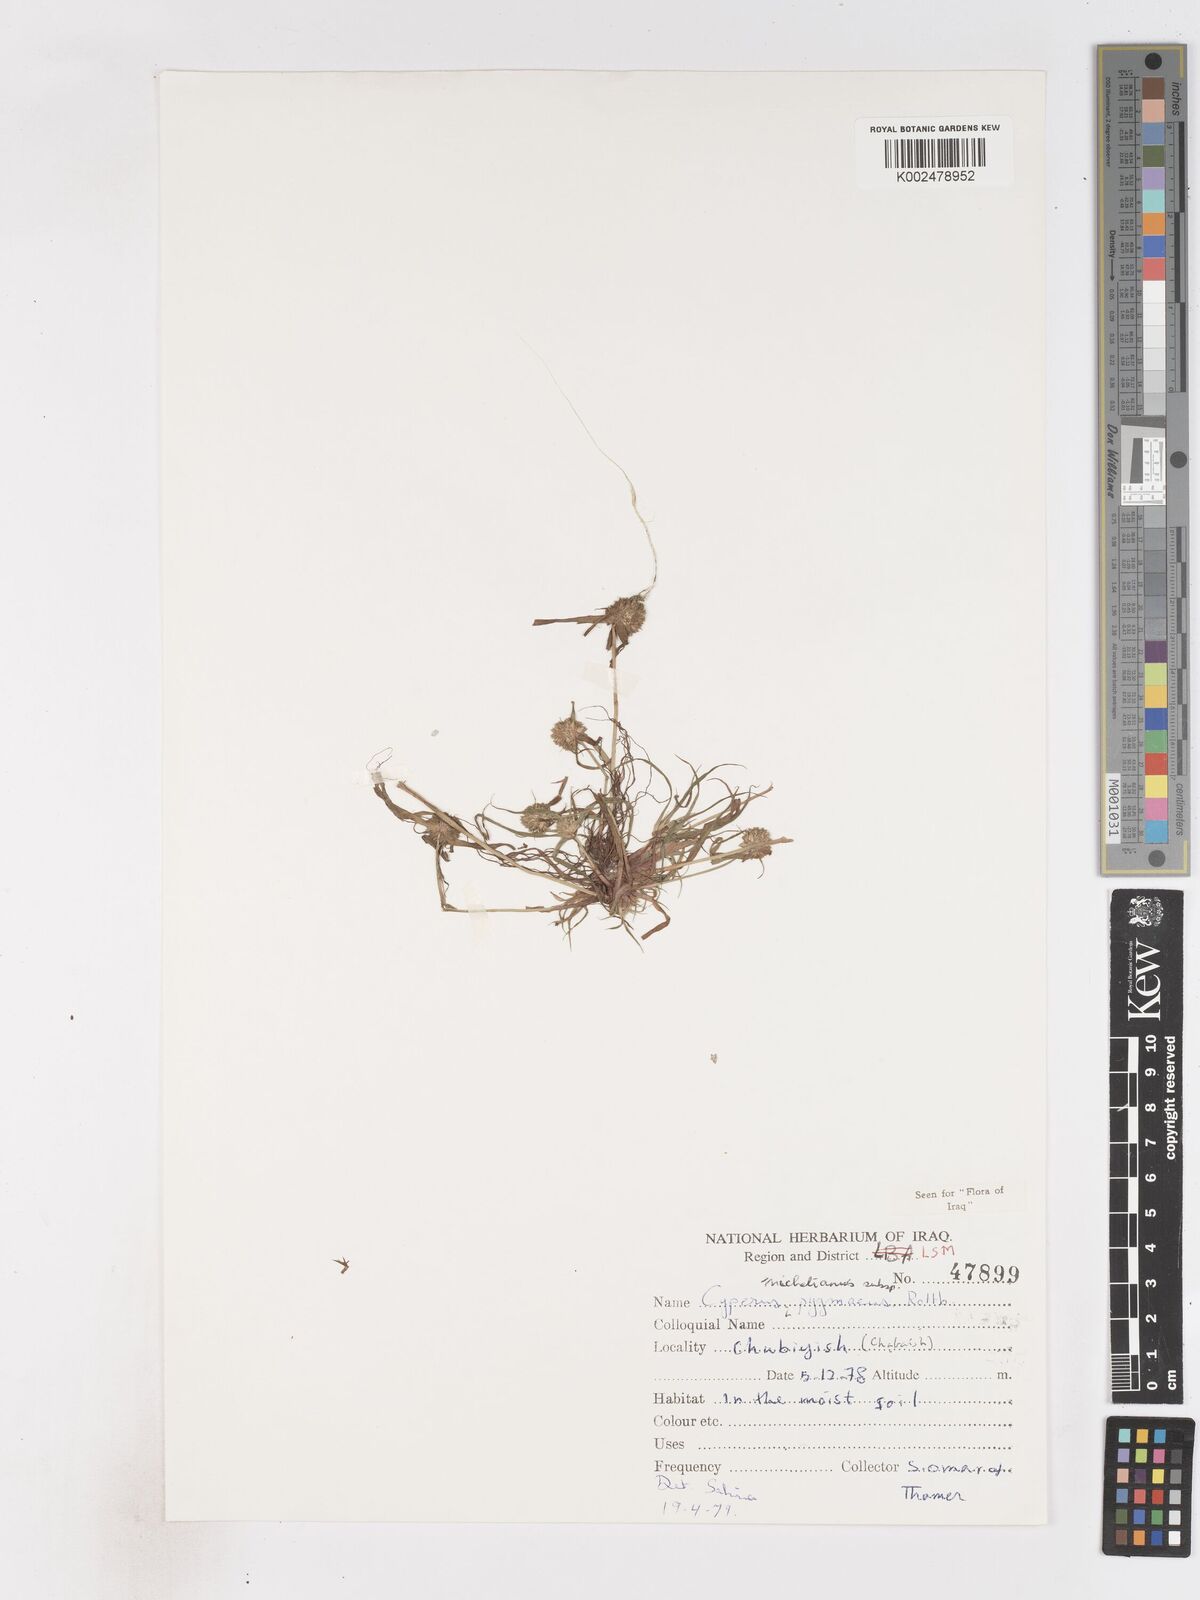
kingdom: Plantae
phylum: Tracheophyta
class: Liliopsida
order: Poales
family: Cyperaceae
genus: Cyperus
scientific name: Cyperus michelianus
